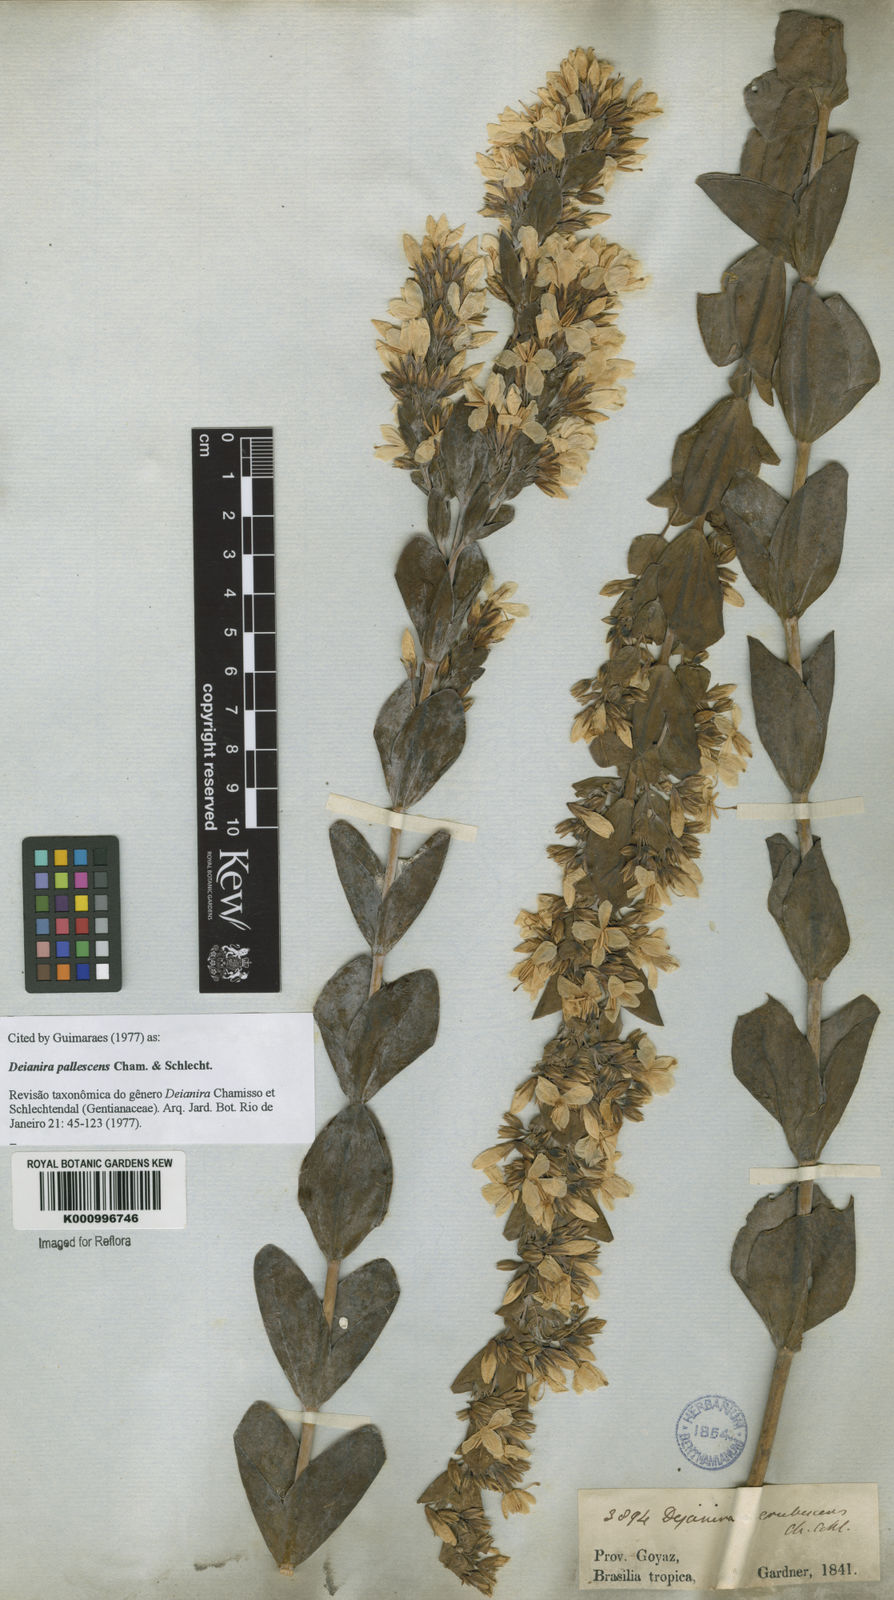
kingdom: Plantae
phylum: Tracheophyta
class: Magnoliopsida
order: Gentianales
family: Gentianaceae
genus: Deianira
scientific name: Deianira pallescens
